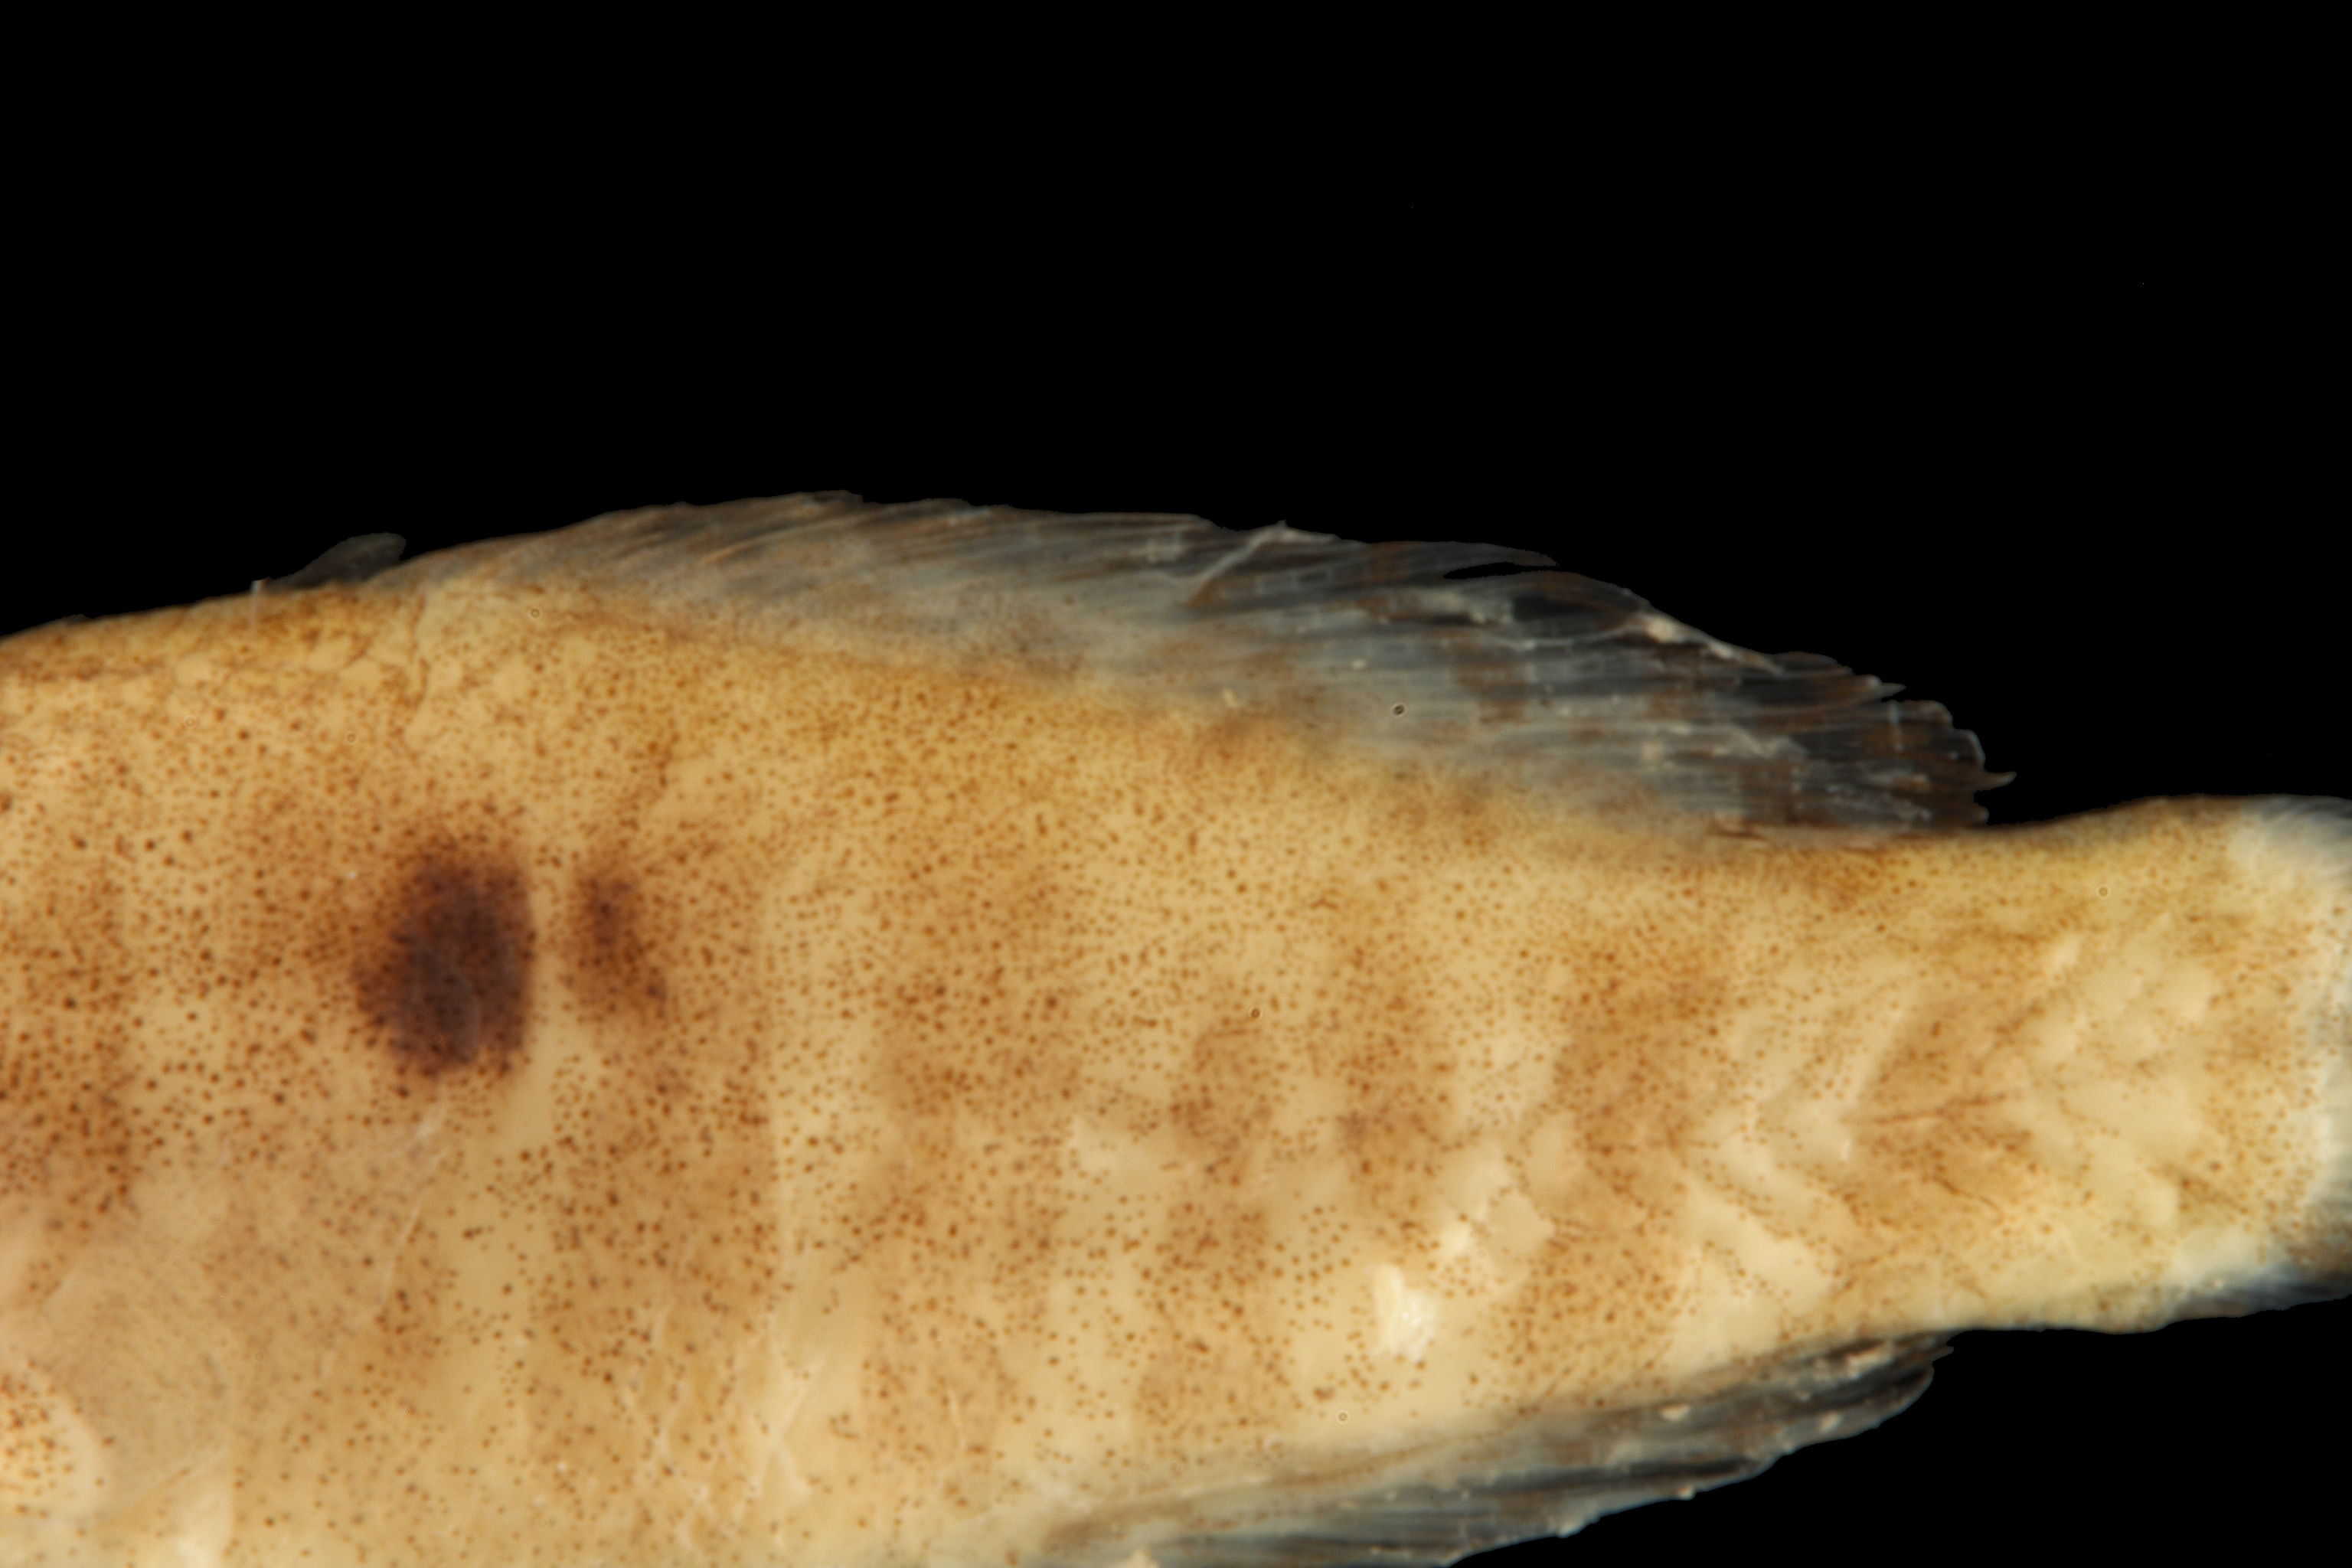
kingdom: Animalia
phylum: Chordata
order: Perciformes
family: Elassomatidae
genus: Elassoma
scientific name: Elassoma zonatum
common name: Banded pygmy sunfish
